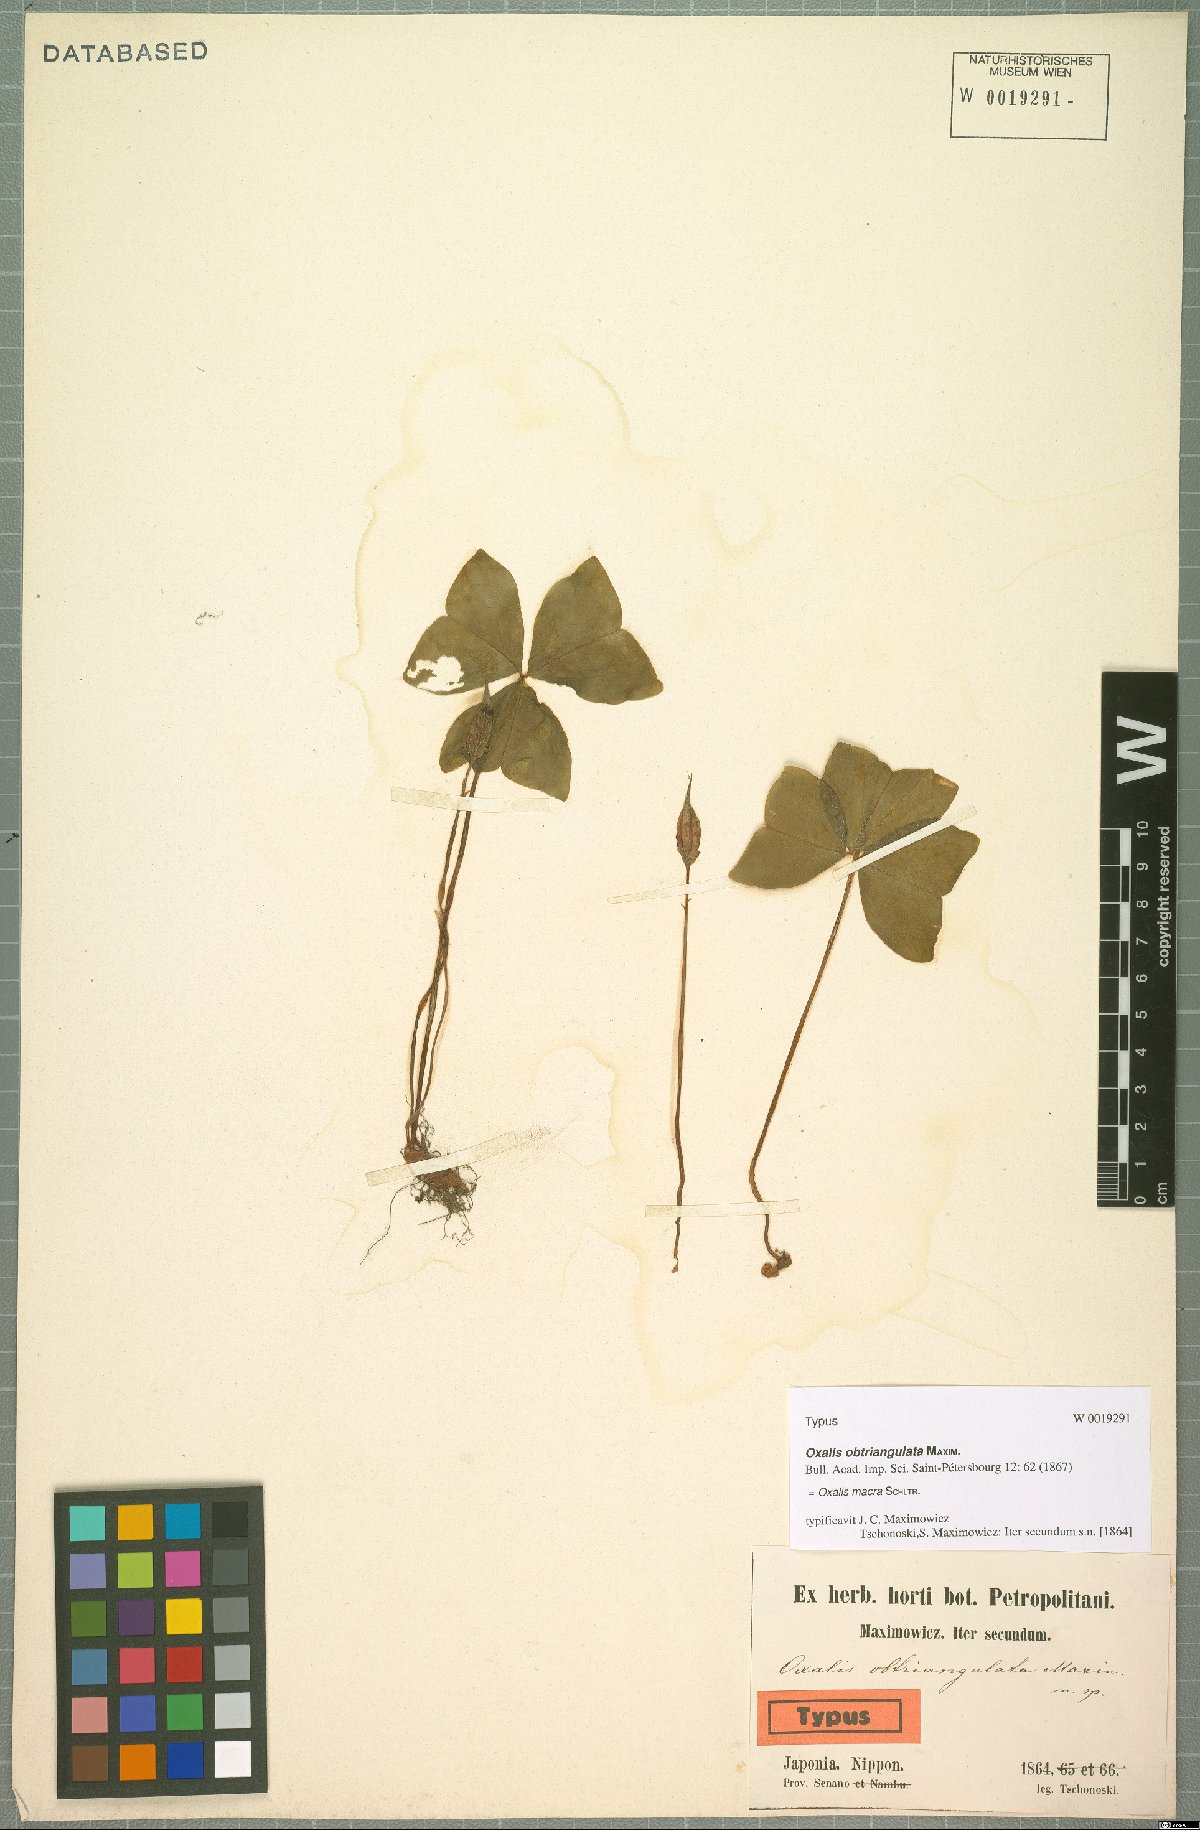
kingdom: Plantae
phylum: Tracheophyta
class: Magnoliopsida
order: Oxalidales
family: Oxalidaceae
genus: Oxalis
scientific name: Oxalis macra
